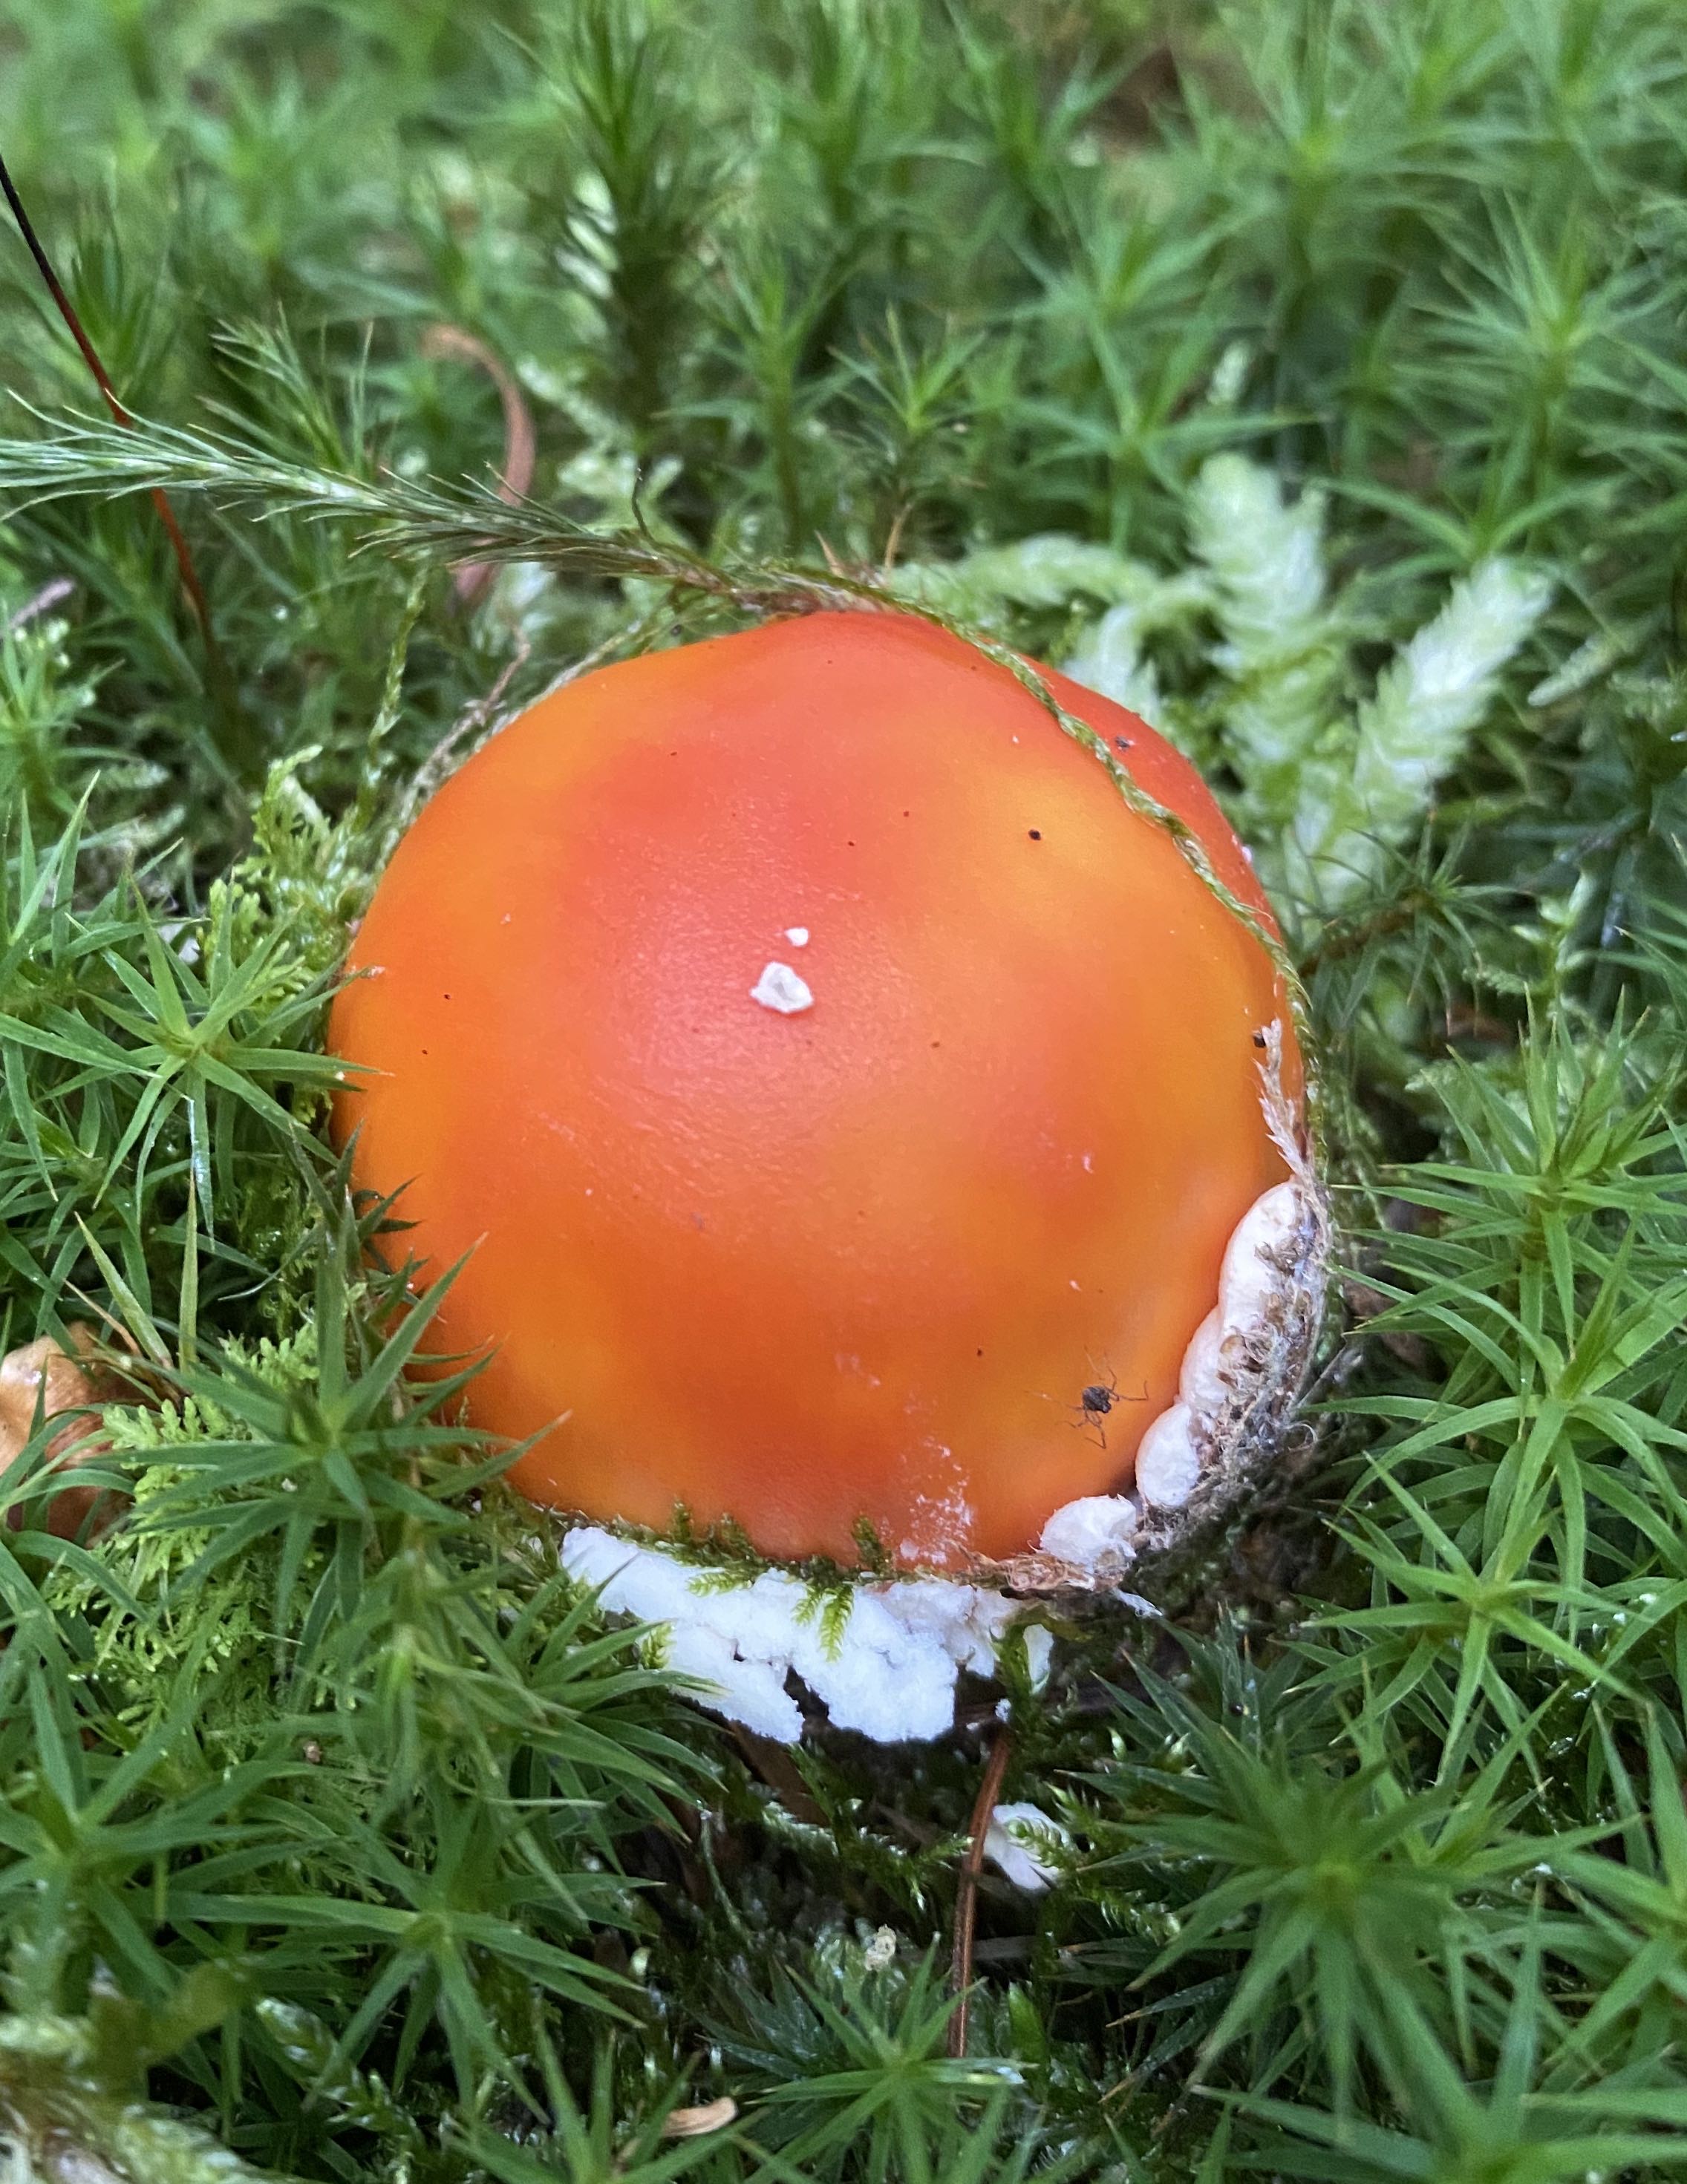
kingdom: Fungi
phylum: Basidiomycota
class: Agaricomycetes
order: Agaricales
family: Amanitaceae
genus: Amanita
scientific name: Amanita muscaria
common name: rød fluesvamp
